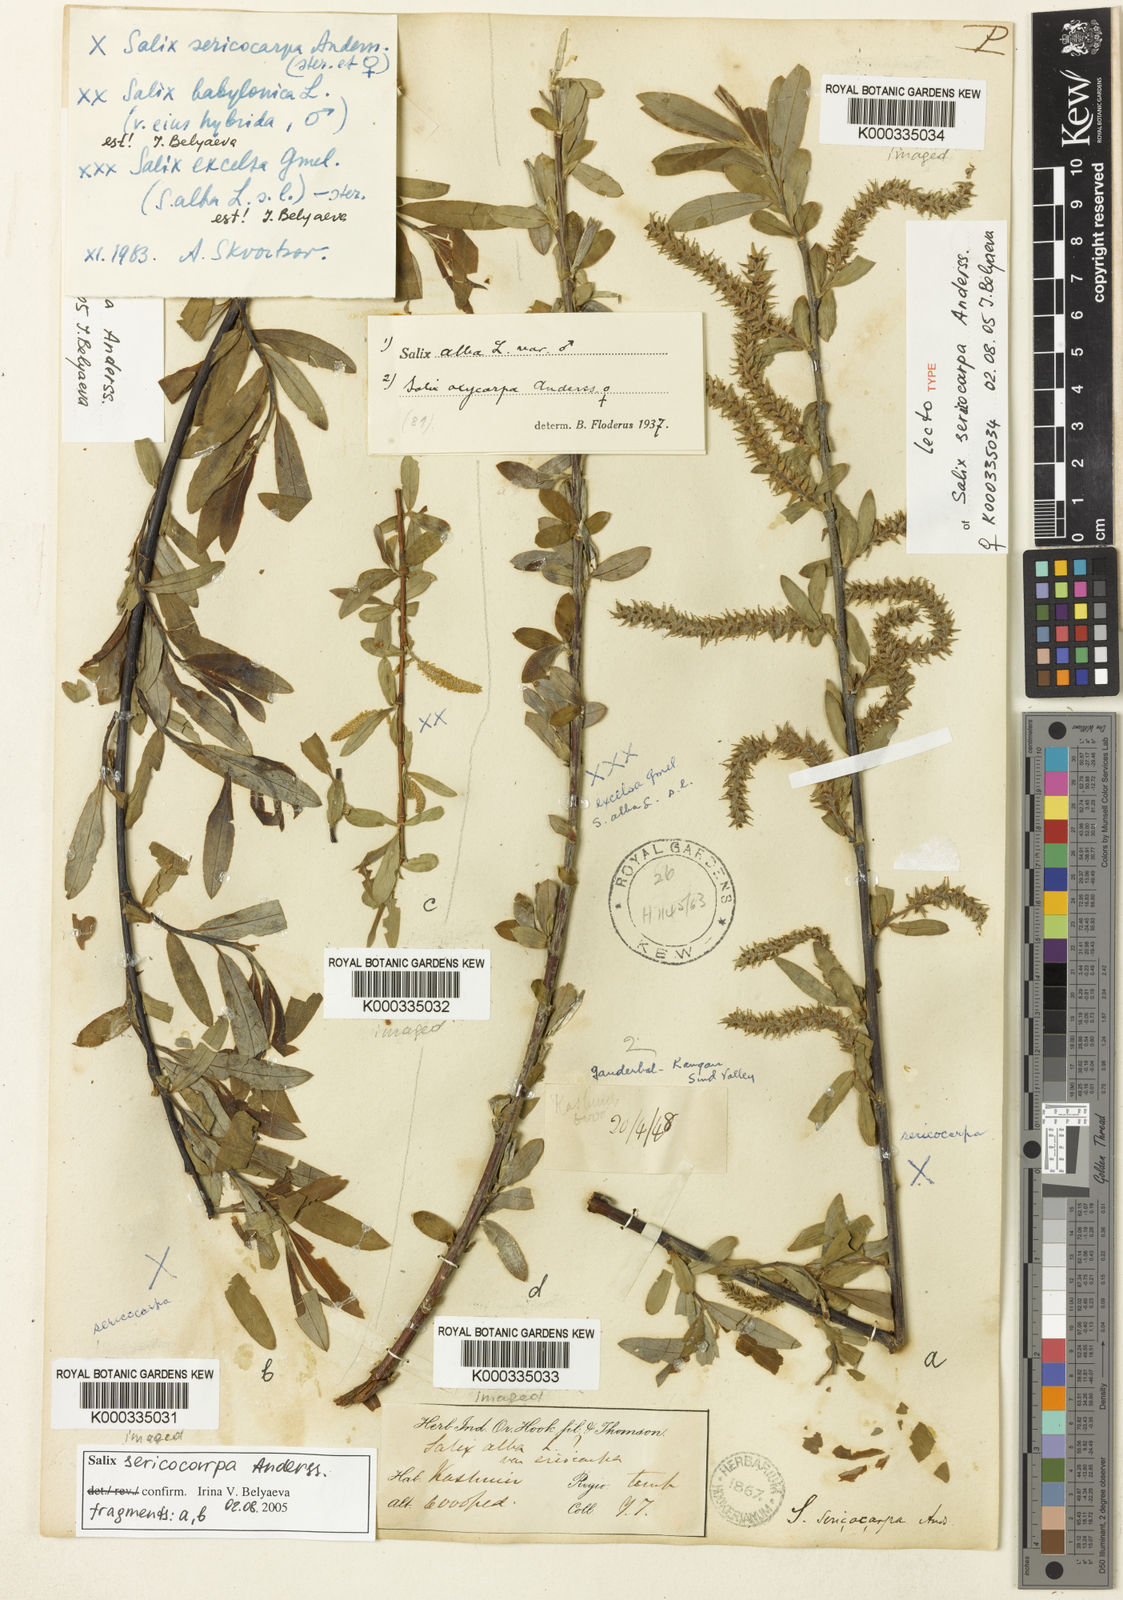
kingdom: Plantae
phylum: Tracheophyta
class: Magnoliopsida
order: Malpighiales
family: Salicaceae
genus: Salix
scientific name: Salix sericocarpa
